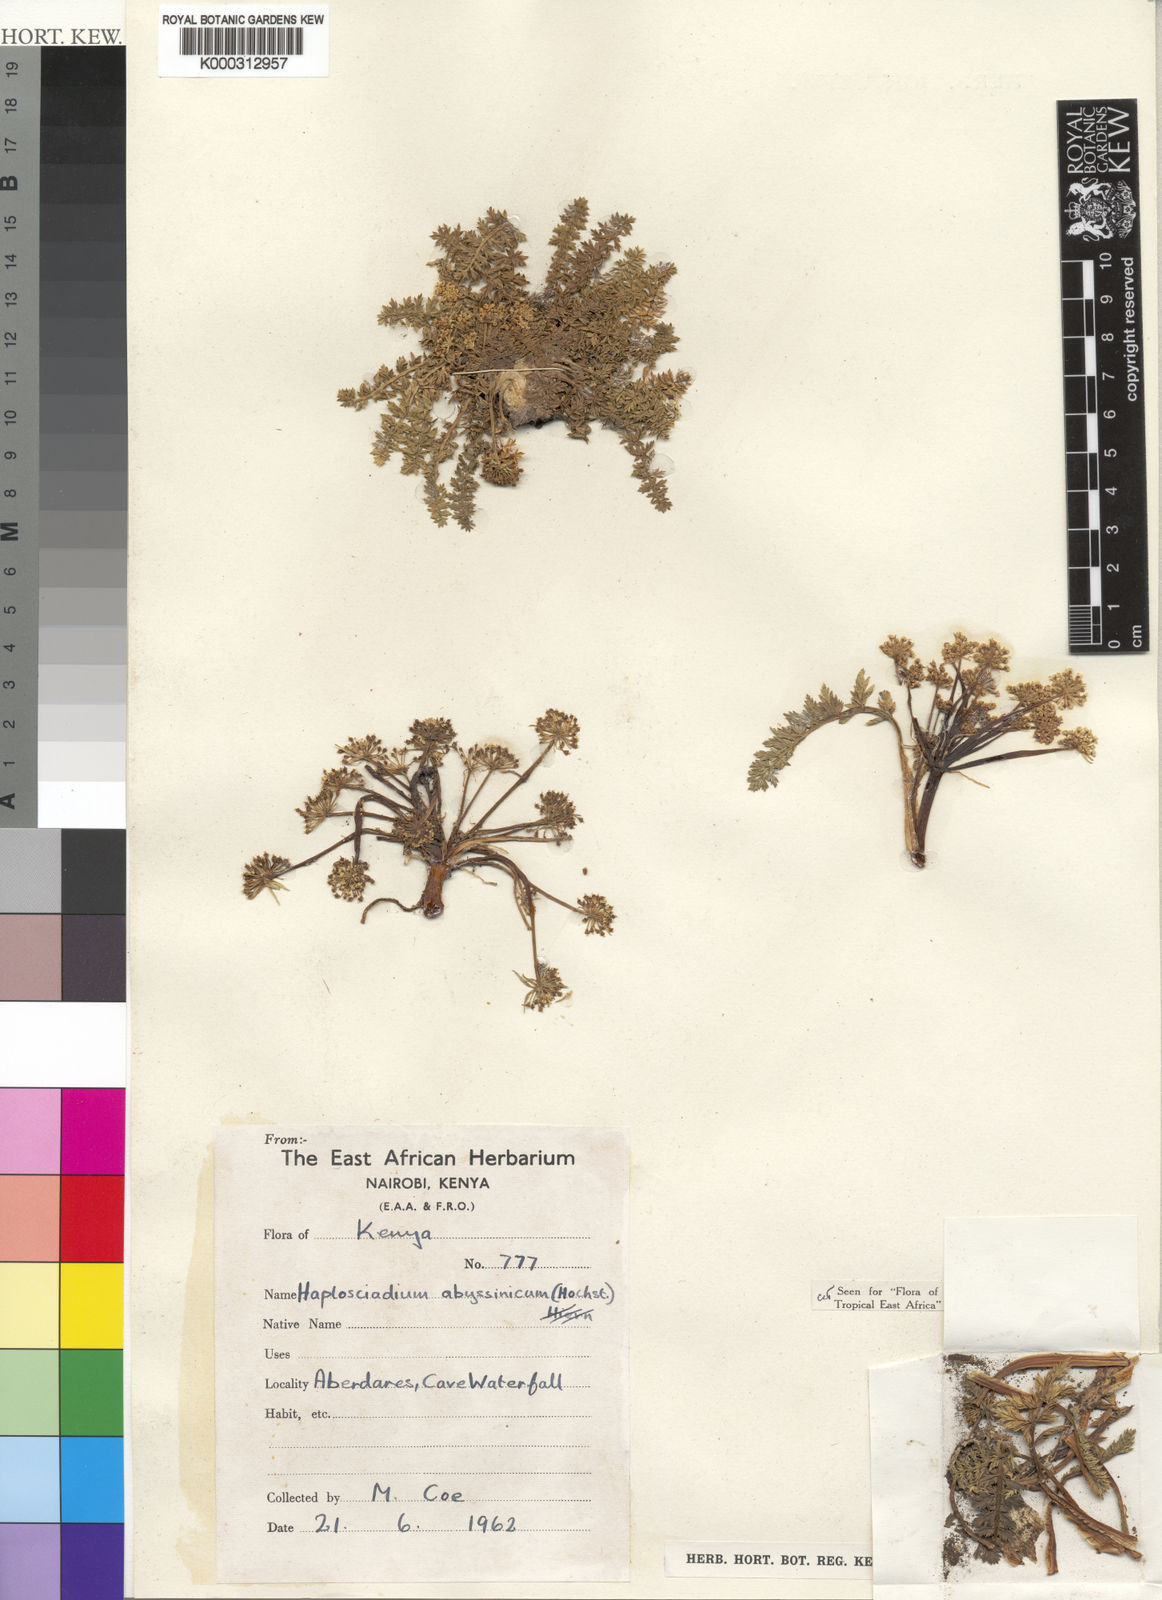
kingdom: Plantae
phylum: Tracheophyta
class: Magnoliopsida
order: Apiales
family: Apiaceae
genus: Haplosciadium
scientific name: Haplosciadium abyssinicum
